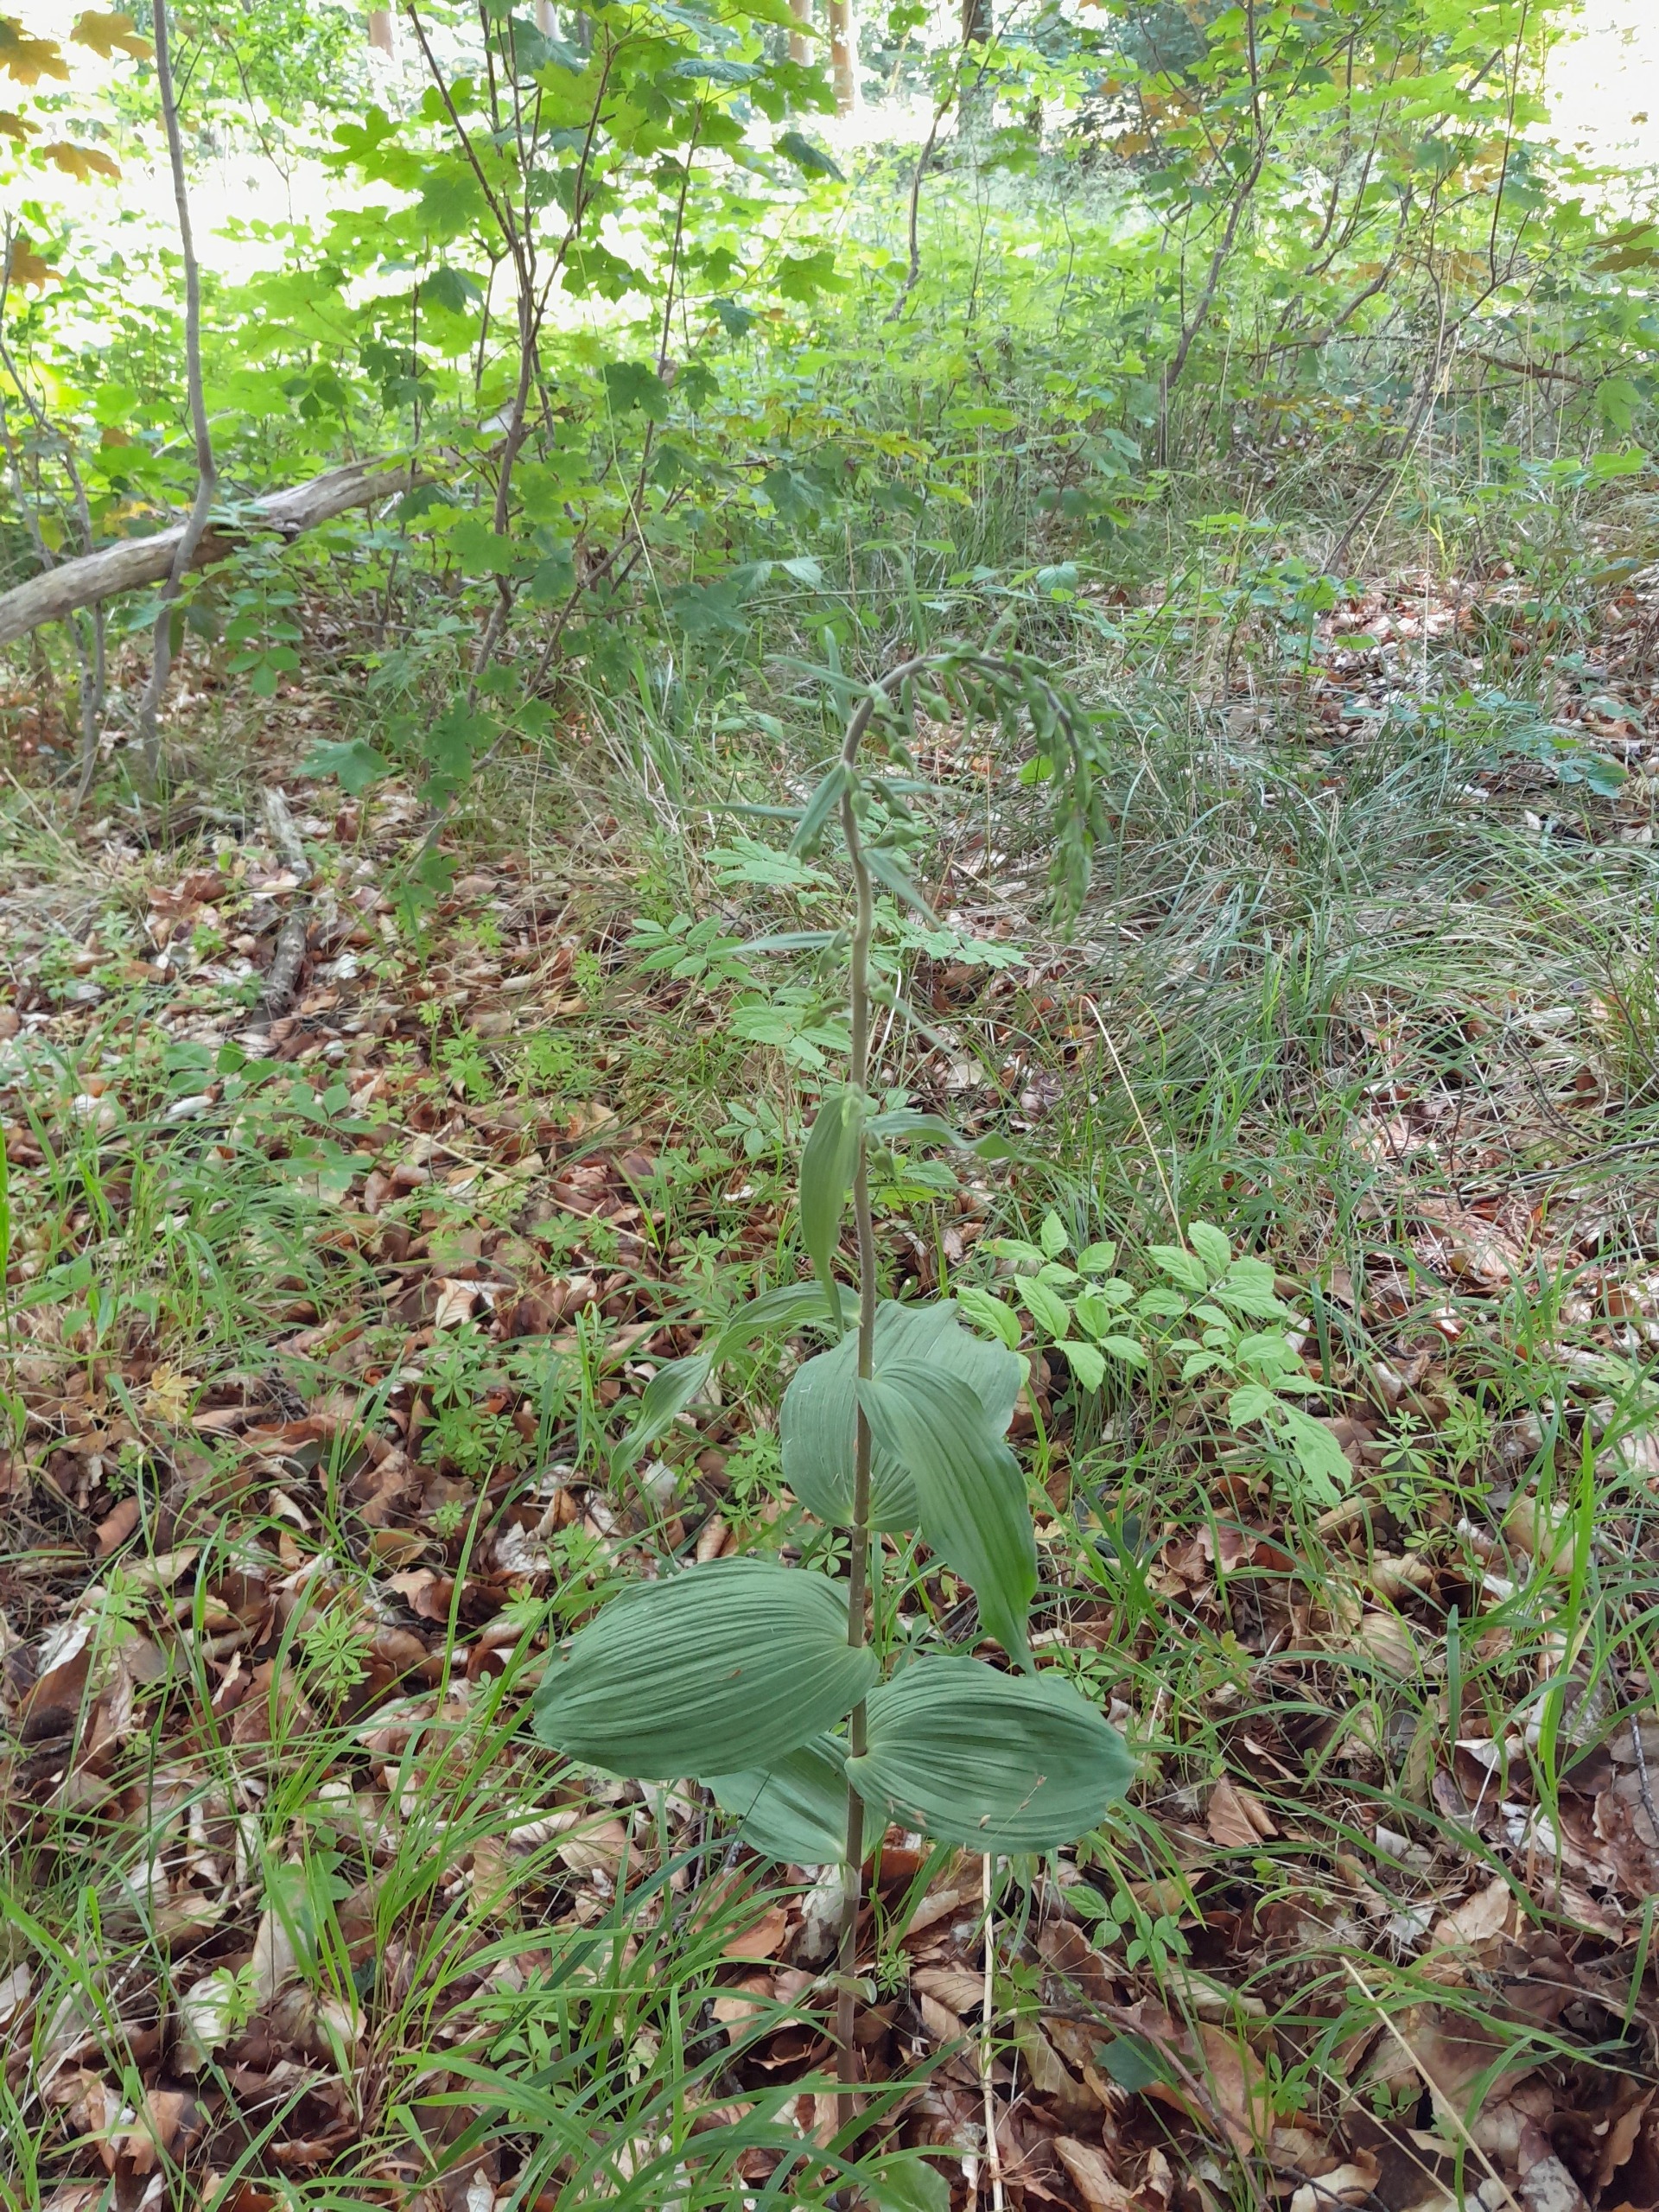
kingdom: Plantae
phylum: Tracheophyta
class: Liliopsida
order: Asparagales
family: Orchidaceae
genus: Epipactis
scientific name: Epipactis helleborine
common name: Skov-hullæbe
